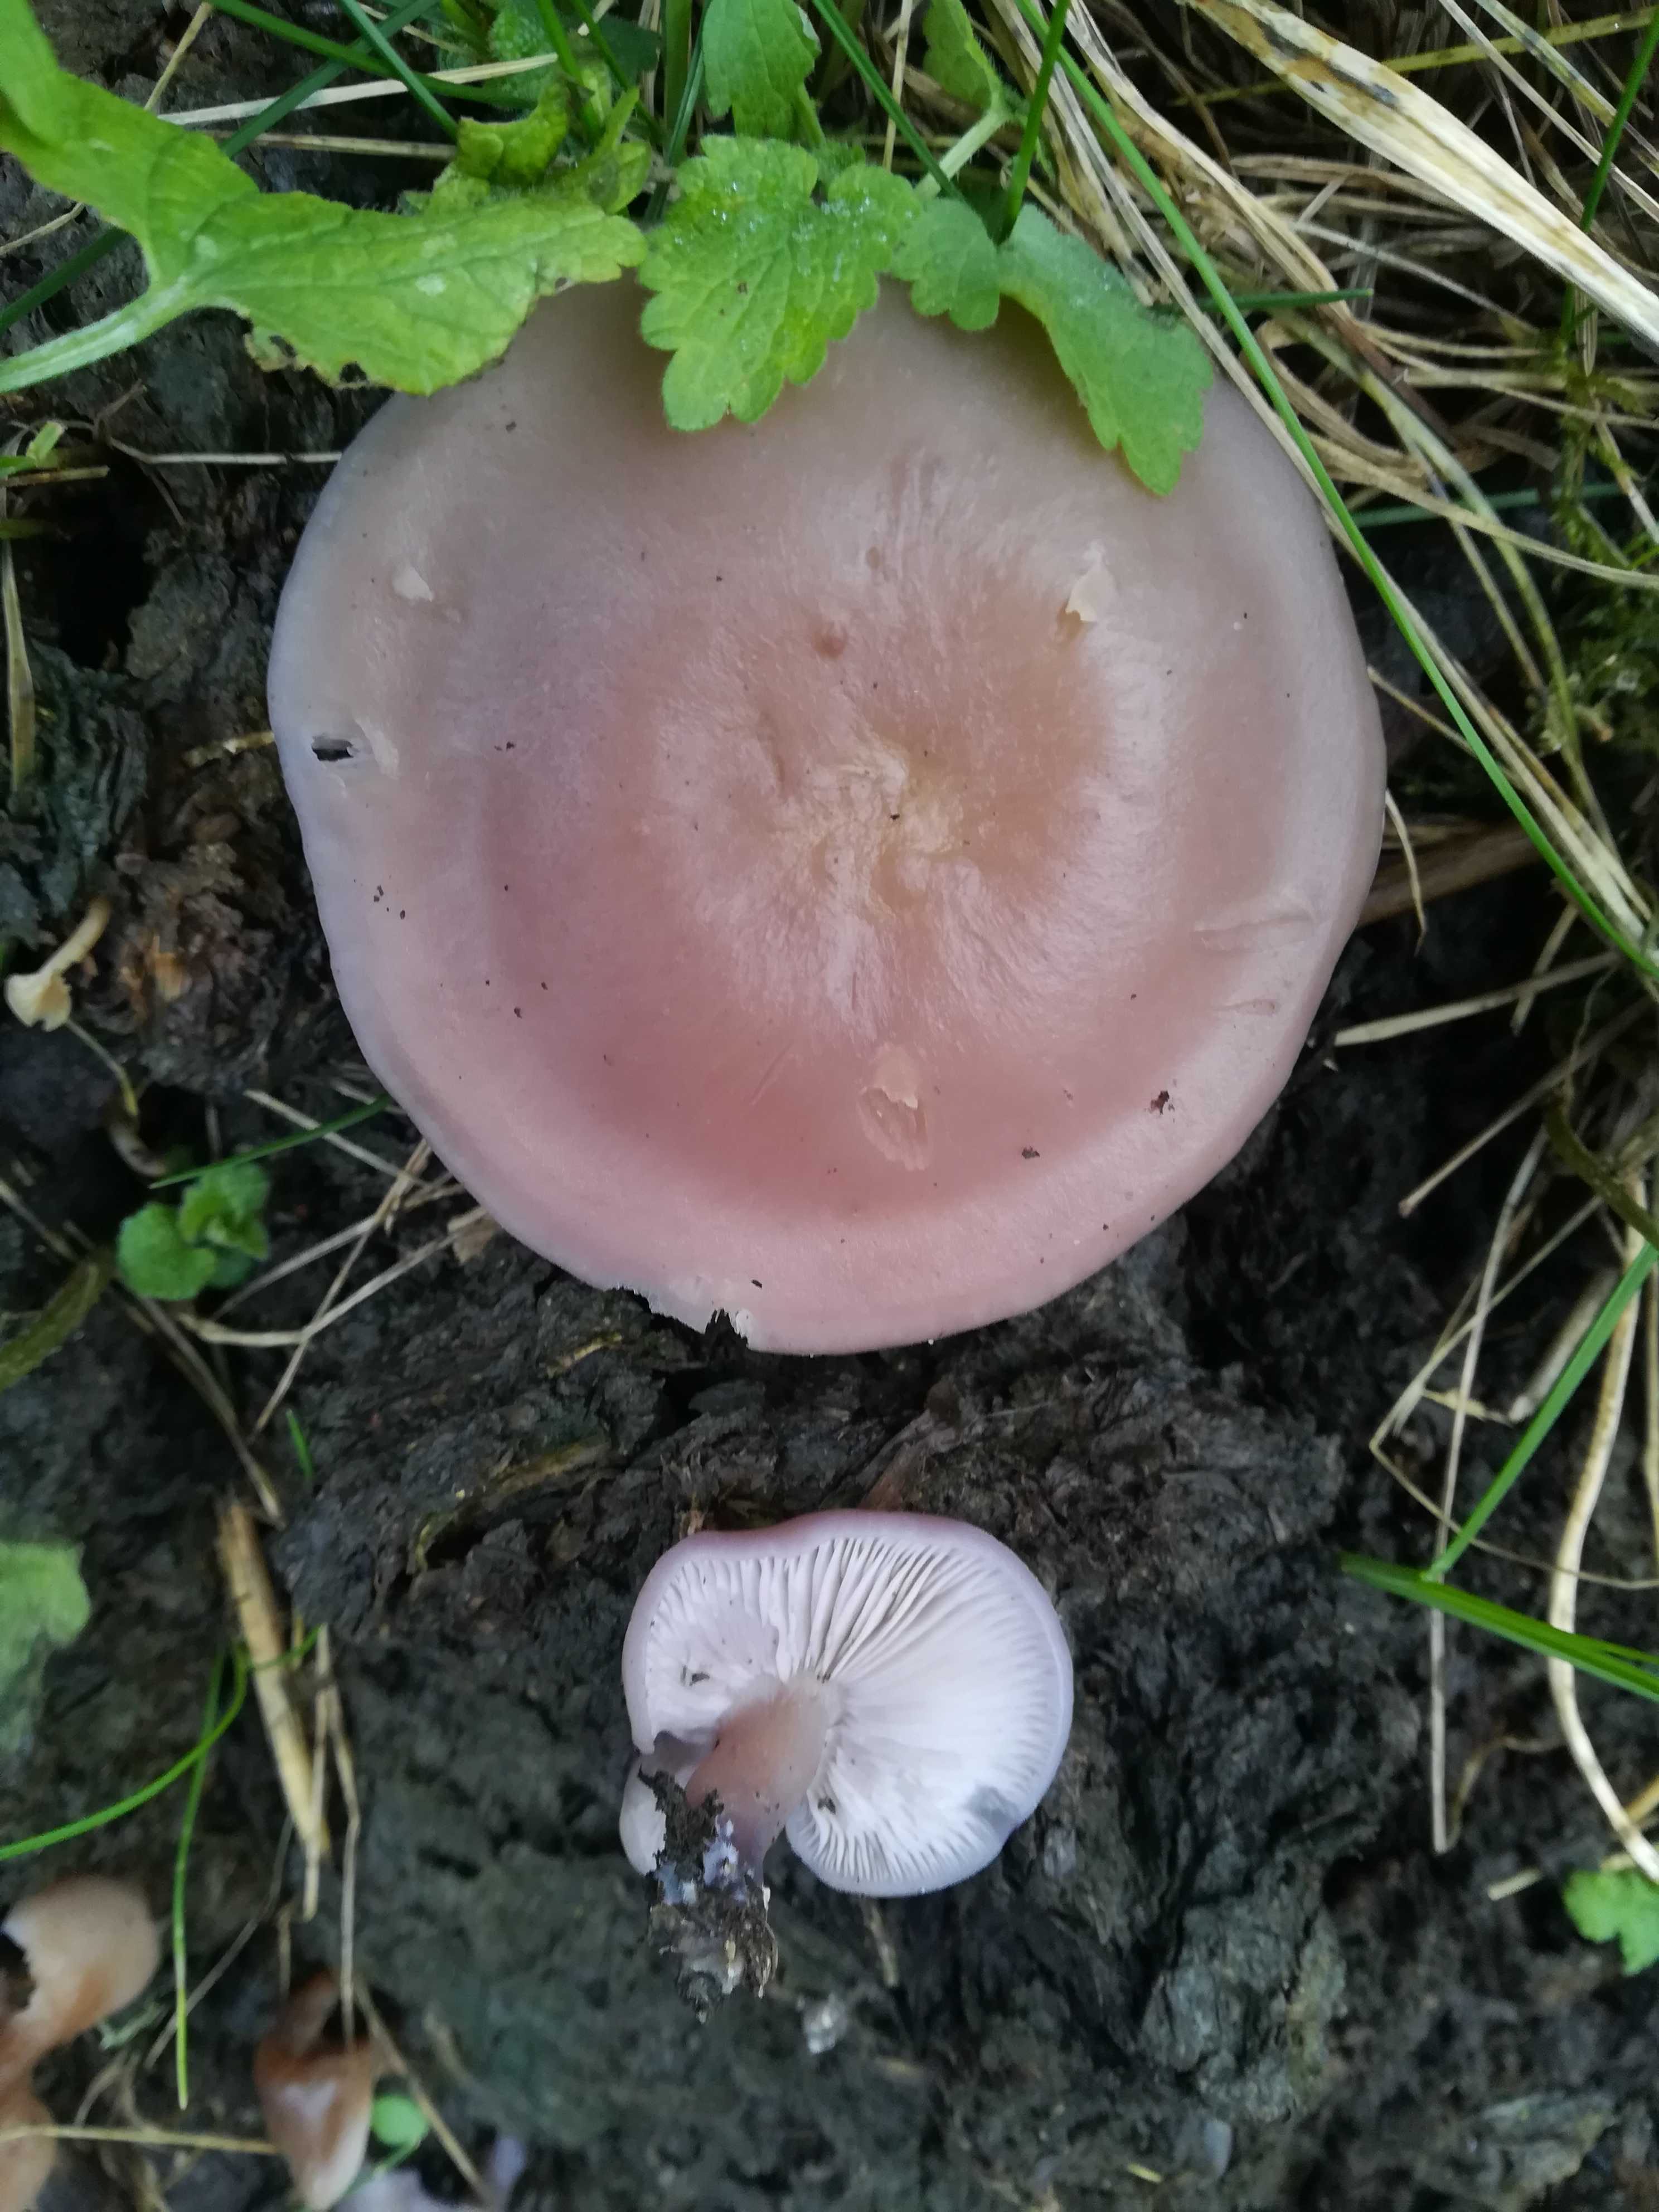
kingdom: Fungi
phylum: Basidiomycota
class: Agaricomycetes
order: Agaricales
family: Mycenaceae
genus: Mycena
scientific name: Mycena rosea
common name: rosa huesvamp
